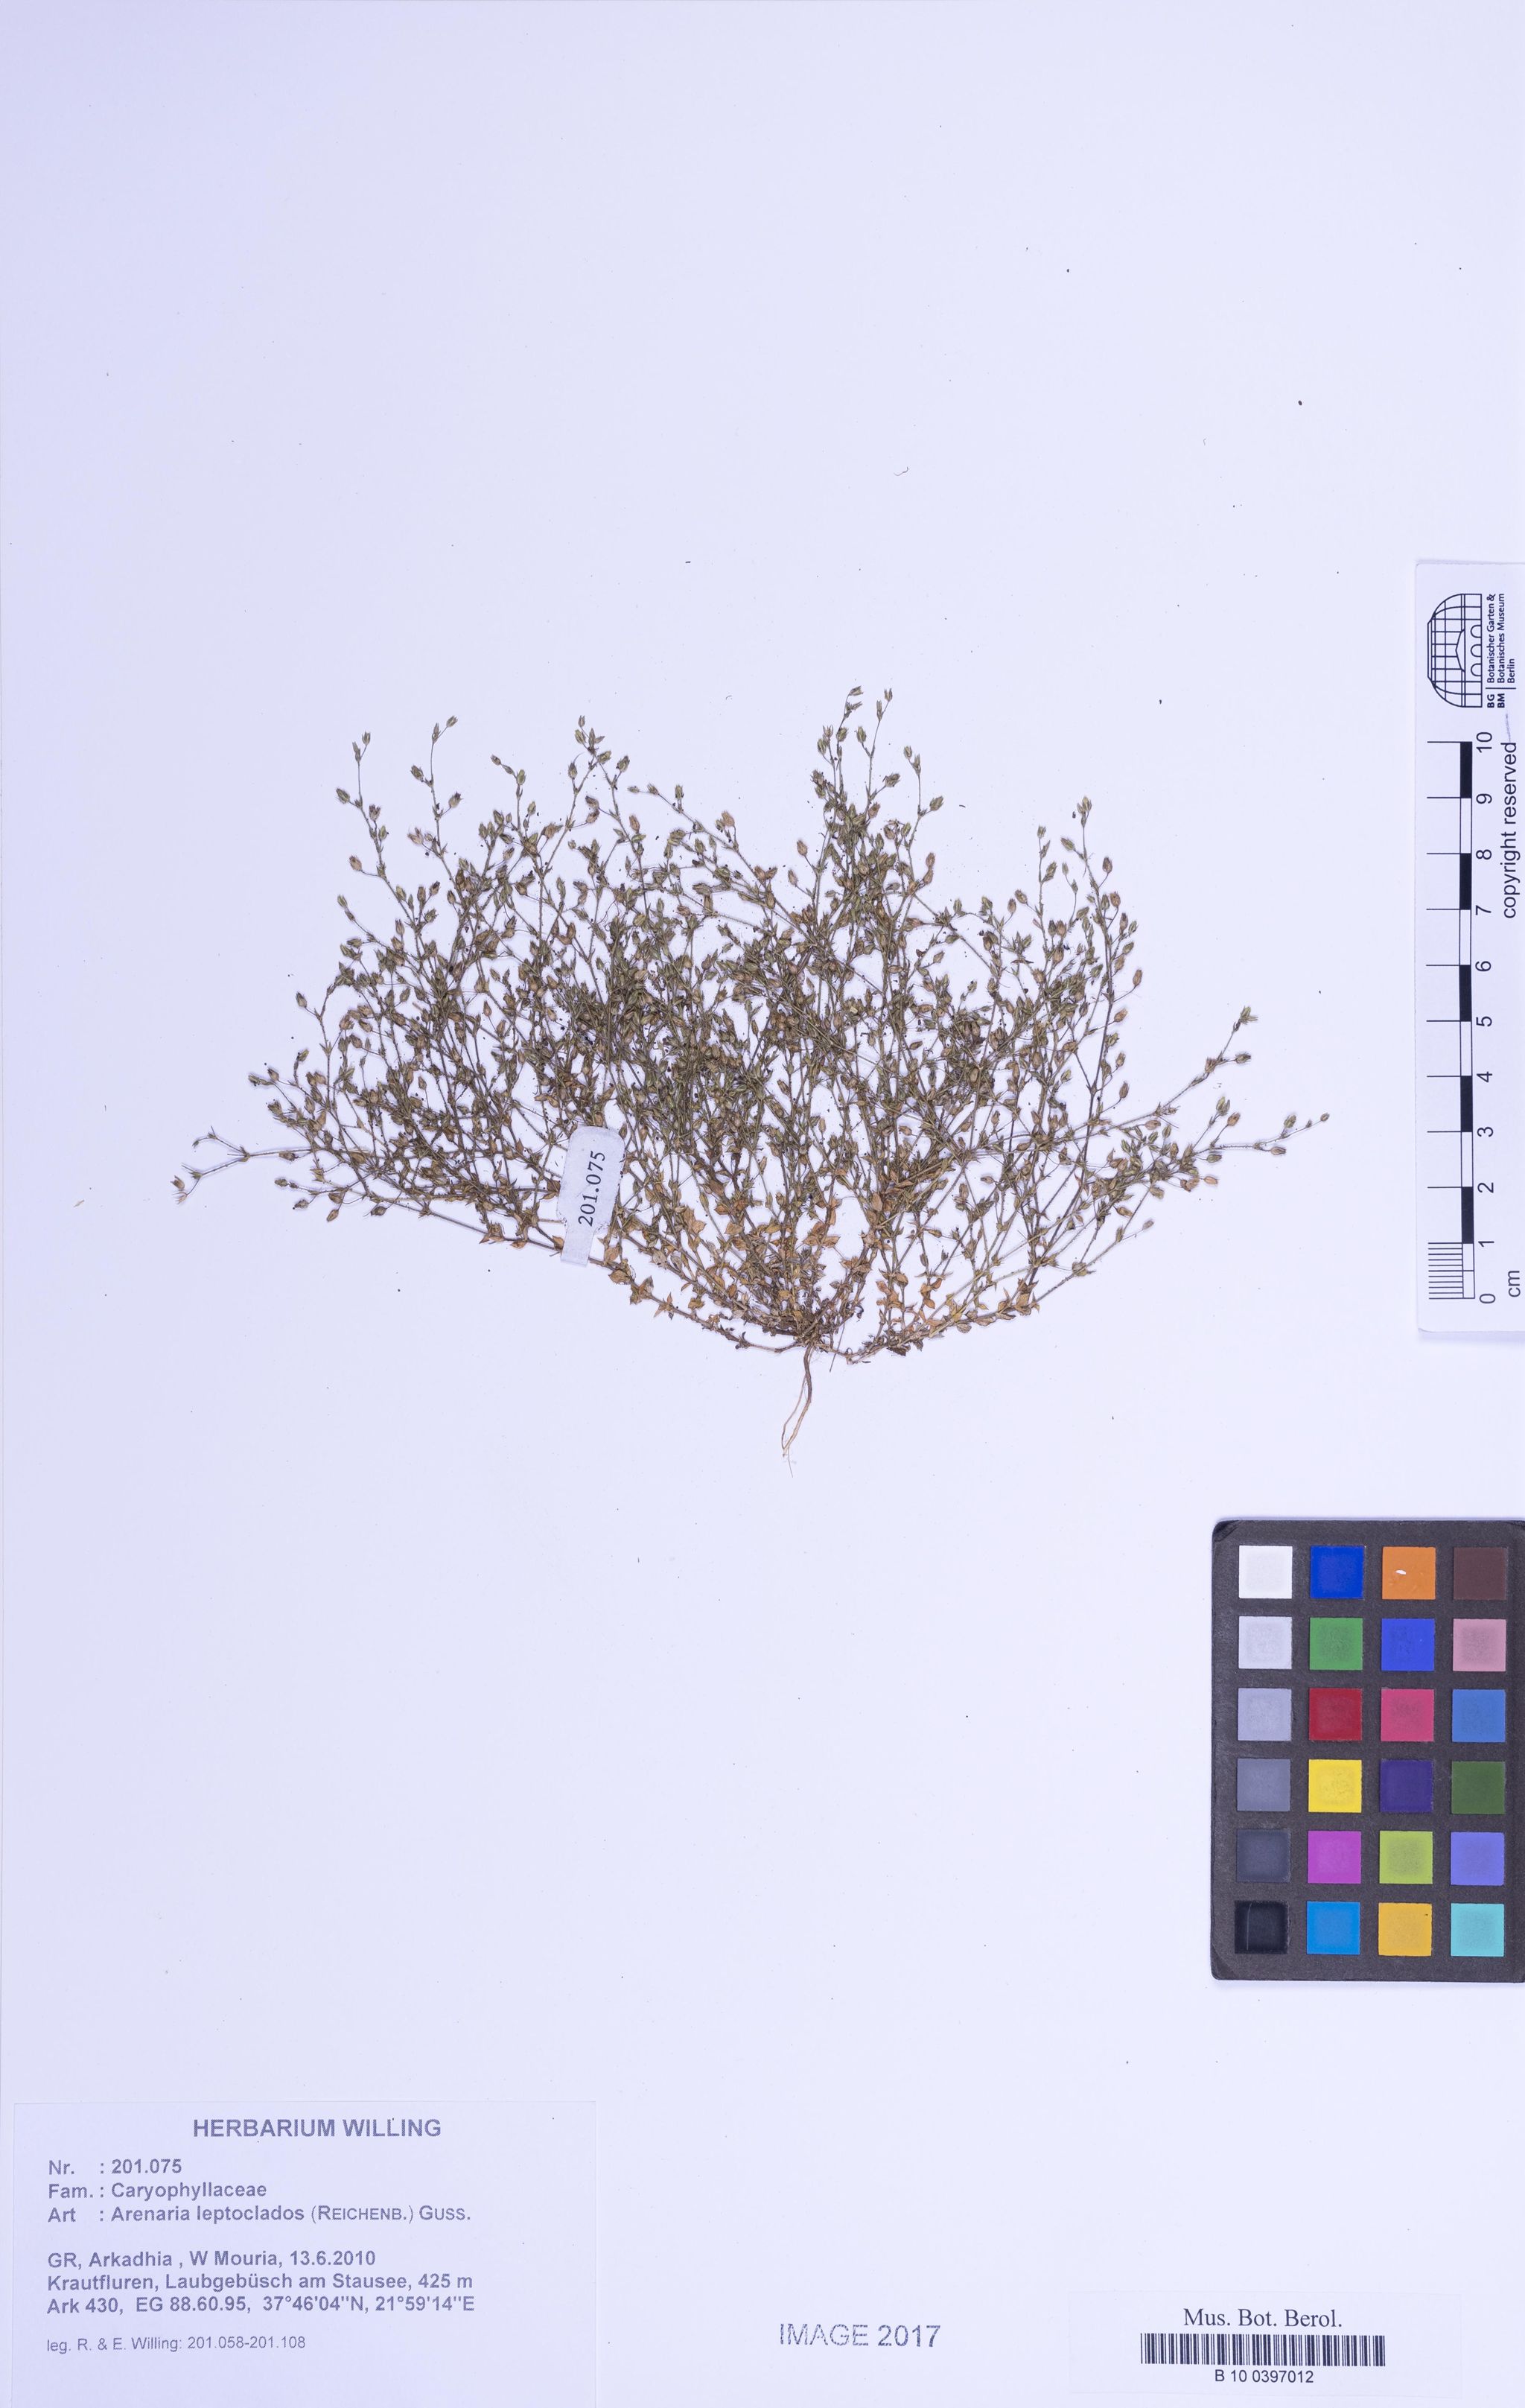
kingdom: Plantae
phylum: Tracheophyta
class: Magnoliopsida
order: Caryophyllales
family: Caryophyllaceae
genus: Arenaria
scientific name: Arenaria leptoclados
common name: Thyme-leaved sandwort
